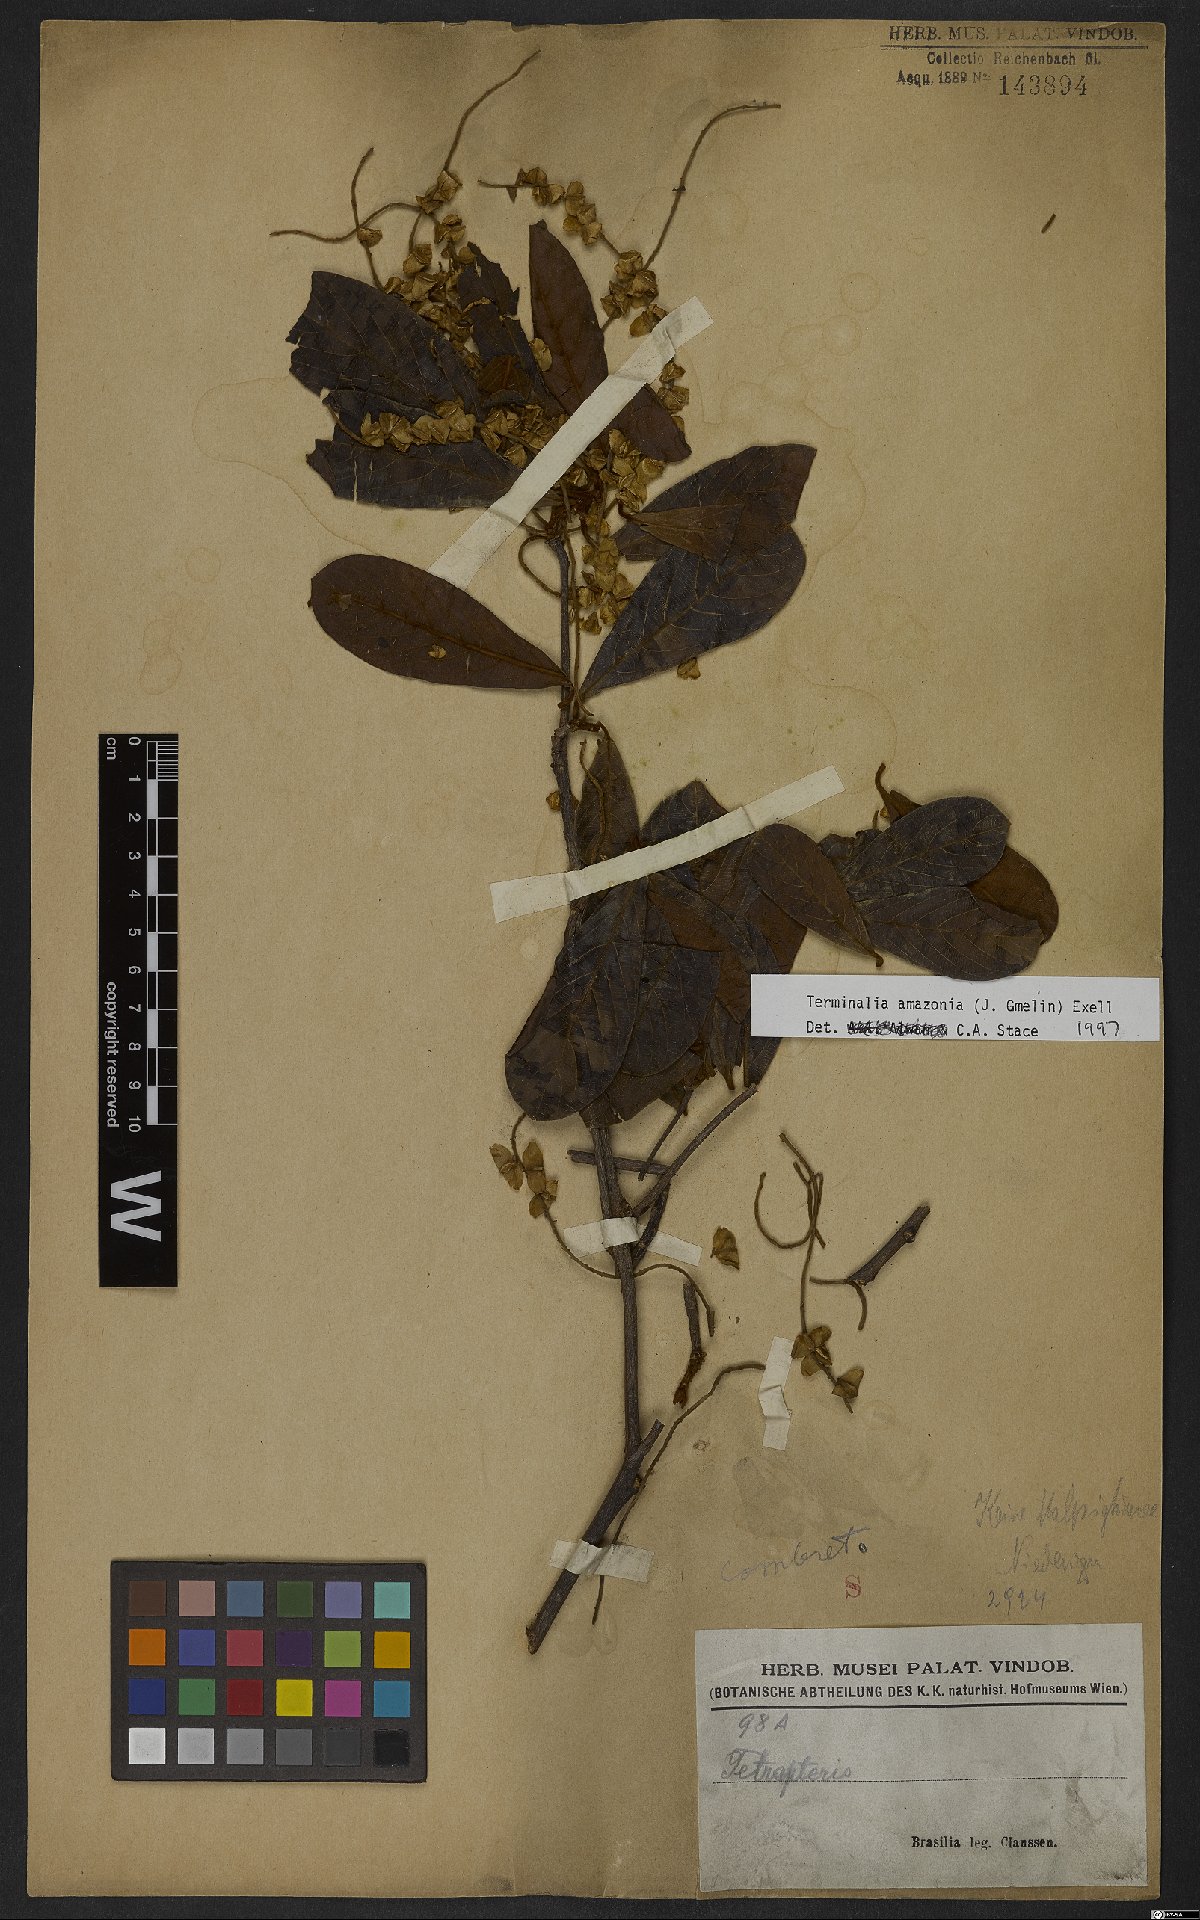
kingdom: Plantae
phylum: Tracheophyta
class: Magnoliopsida
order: Myrtales
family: Combretaceae
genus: Terminalia
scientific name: Terminalia amazonica
